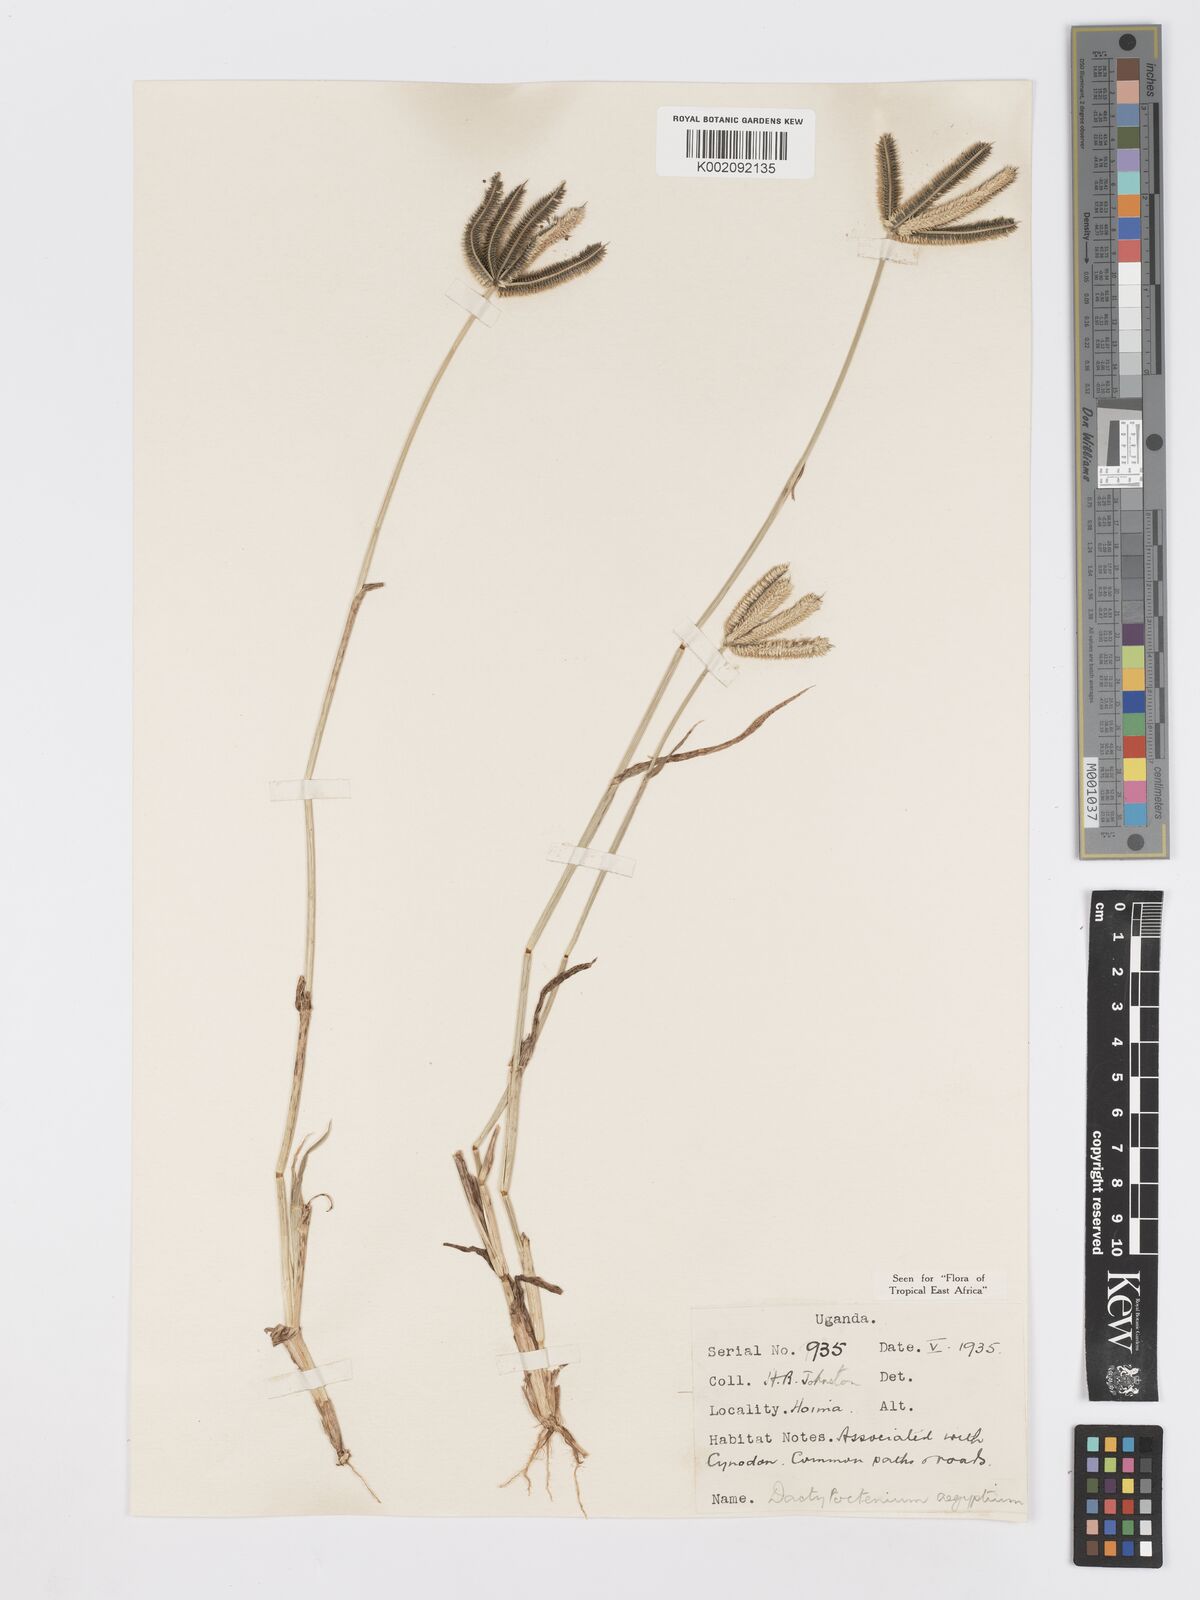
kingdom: Plantae
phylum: Tracheophyta
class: Liliopsida
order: Poales
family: Poaceae
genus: Dactyloctenium
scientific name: Dactyloctenium aegyptium
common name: Egyptian grass
